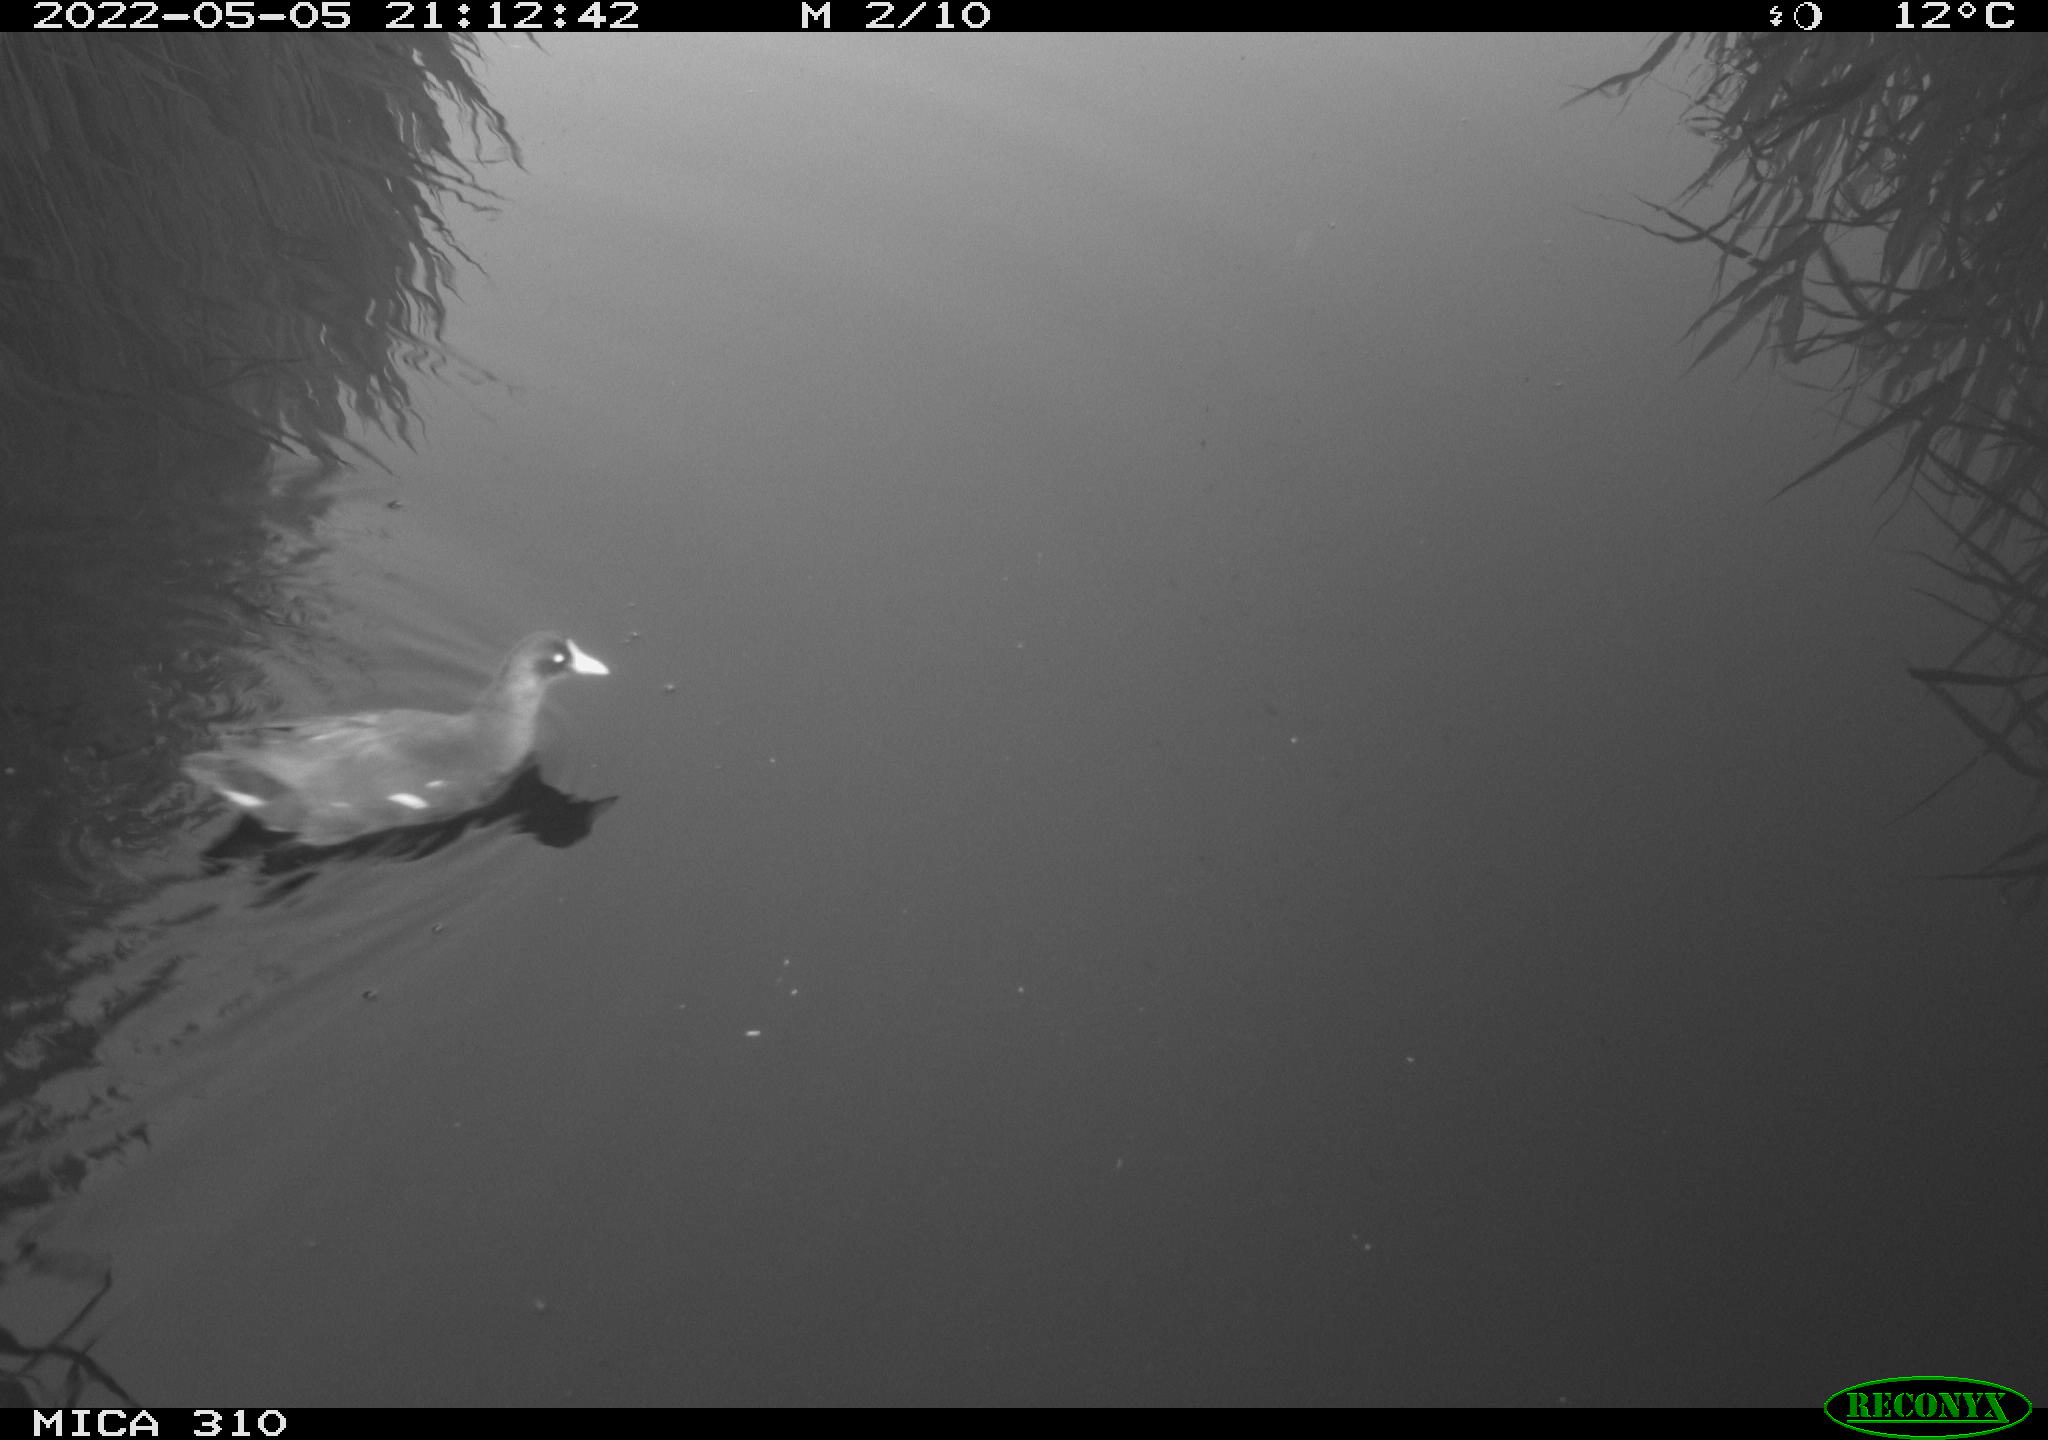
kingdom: Animalia
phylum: Chordata
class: Aves
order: Gruiformes
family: Rallidae
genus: Gallinula
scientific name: Gallinula chloropus
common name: Common moorhen
